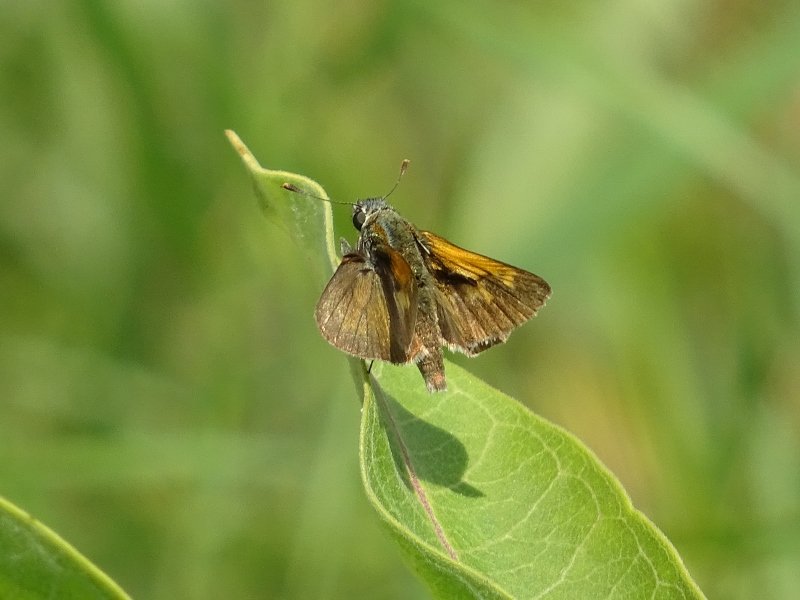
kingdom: Animalia
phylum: Arthropoda
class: Insecta
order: Lepidoptera
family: Hesperiidae
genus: Polites
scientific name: Polites themistocles
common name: Tawny-edged Skipper
